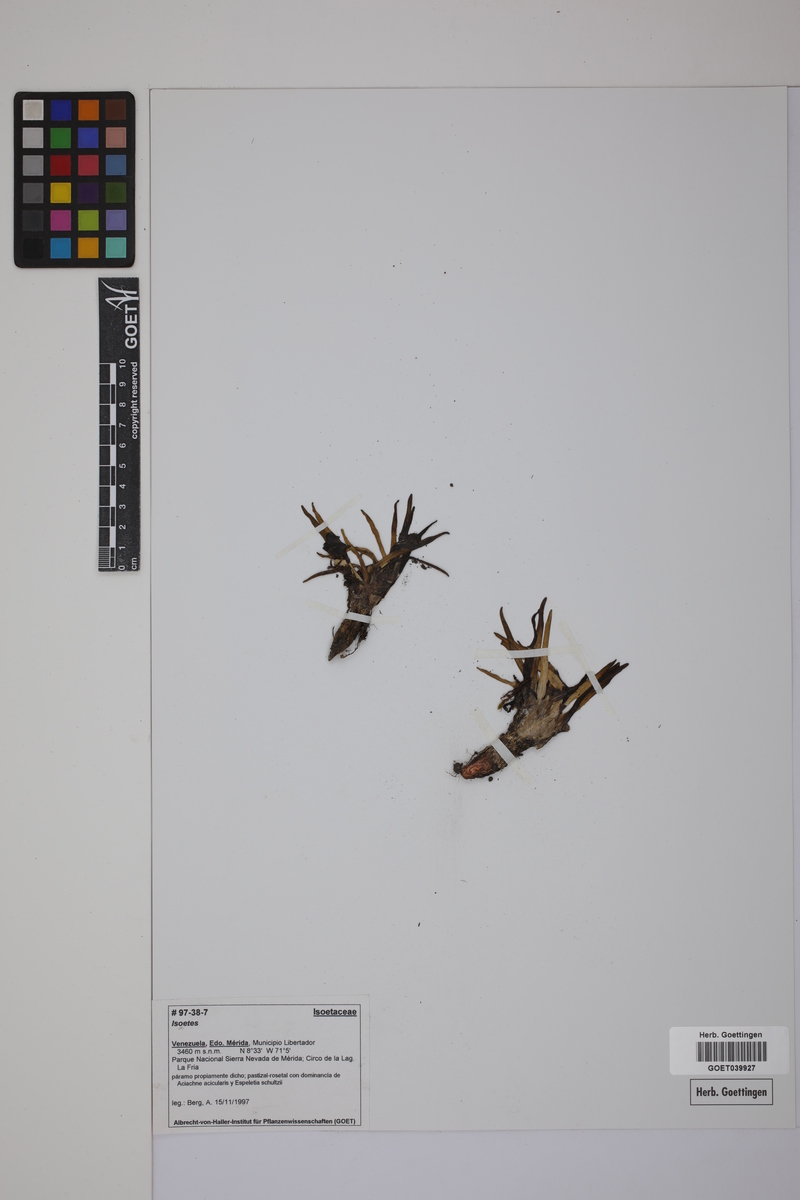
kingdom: Plantae
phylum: Tracheophyta
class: Lycopodiopsida
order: Isoetales
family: Isoetaceae
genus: Isoetes
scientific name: Isoetes
